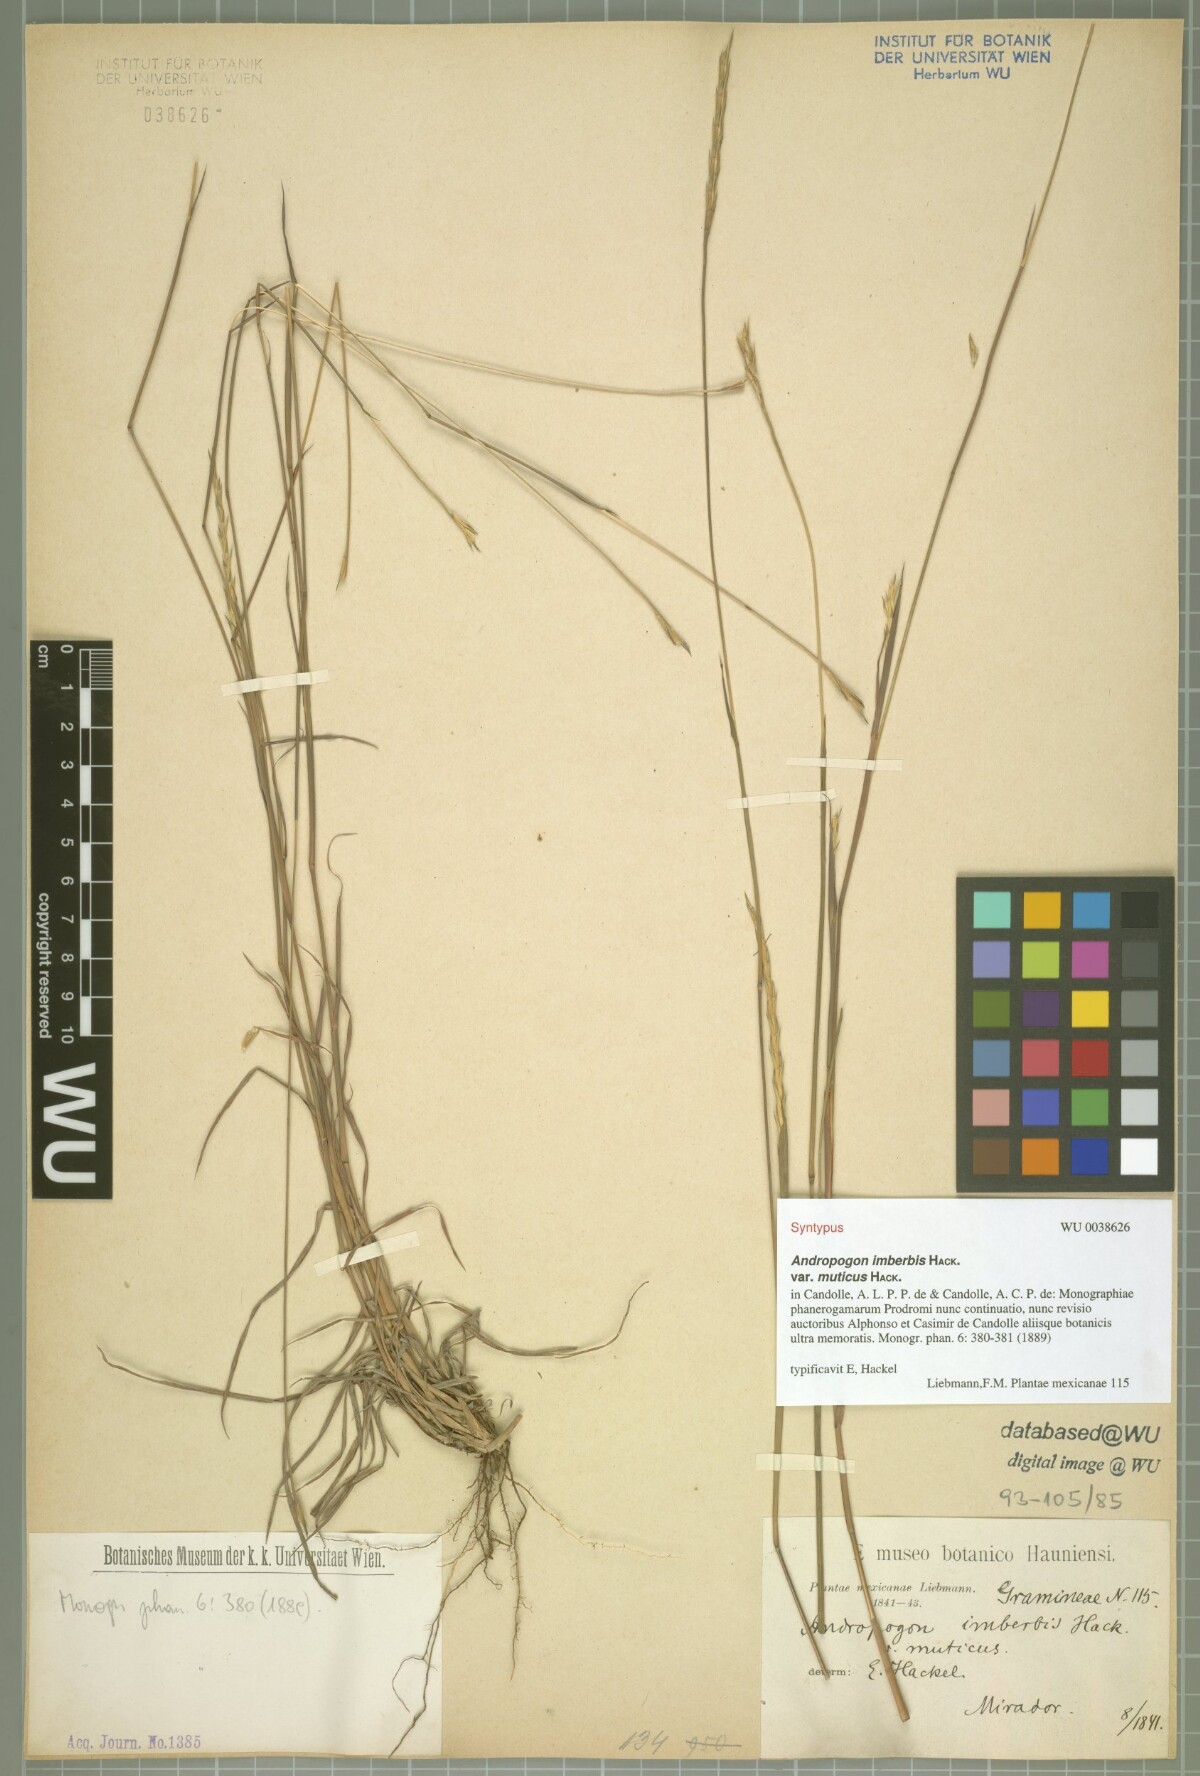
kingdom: Plantae
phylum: Tracheophyta
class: Liliopsida
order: Poales
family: Poaceae
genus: Andropogon
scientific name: Andropogon salzmannii
